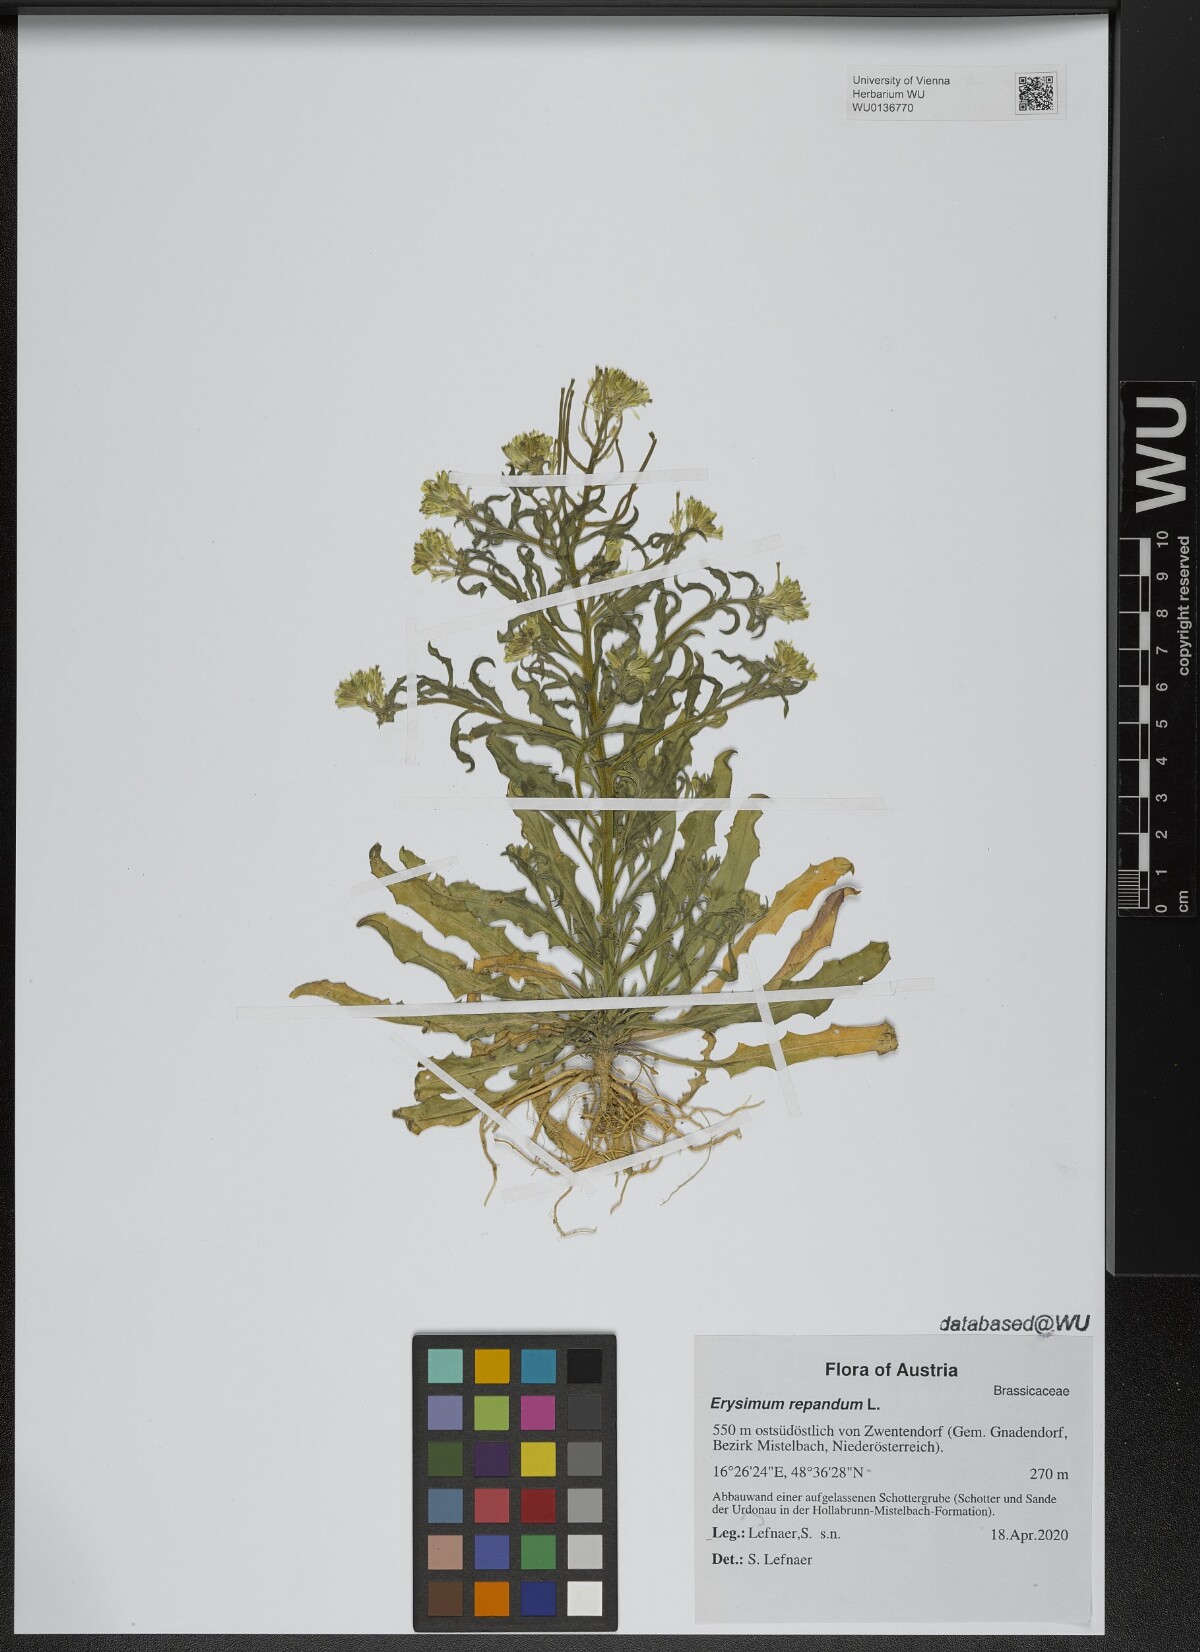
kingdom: Plantae
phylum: Tracheophyta
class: Magnoliopsida
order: Brassicales
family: Brassicaceae
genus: Erysimum
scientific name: Erysimum repandum
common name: Spreading wallflower
